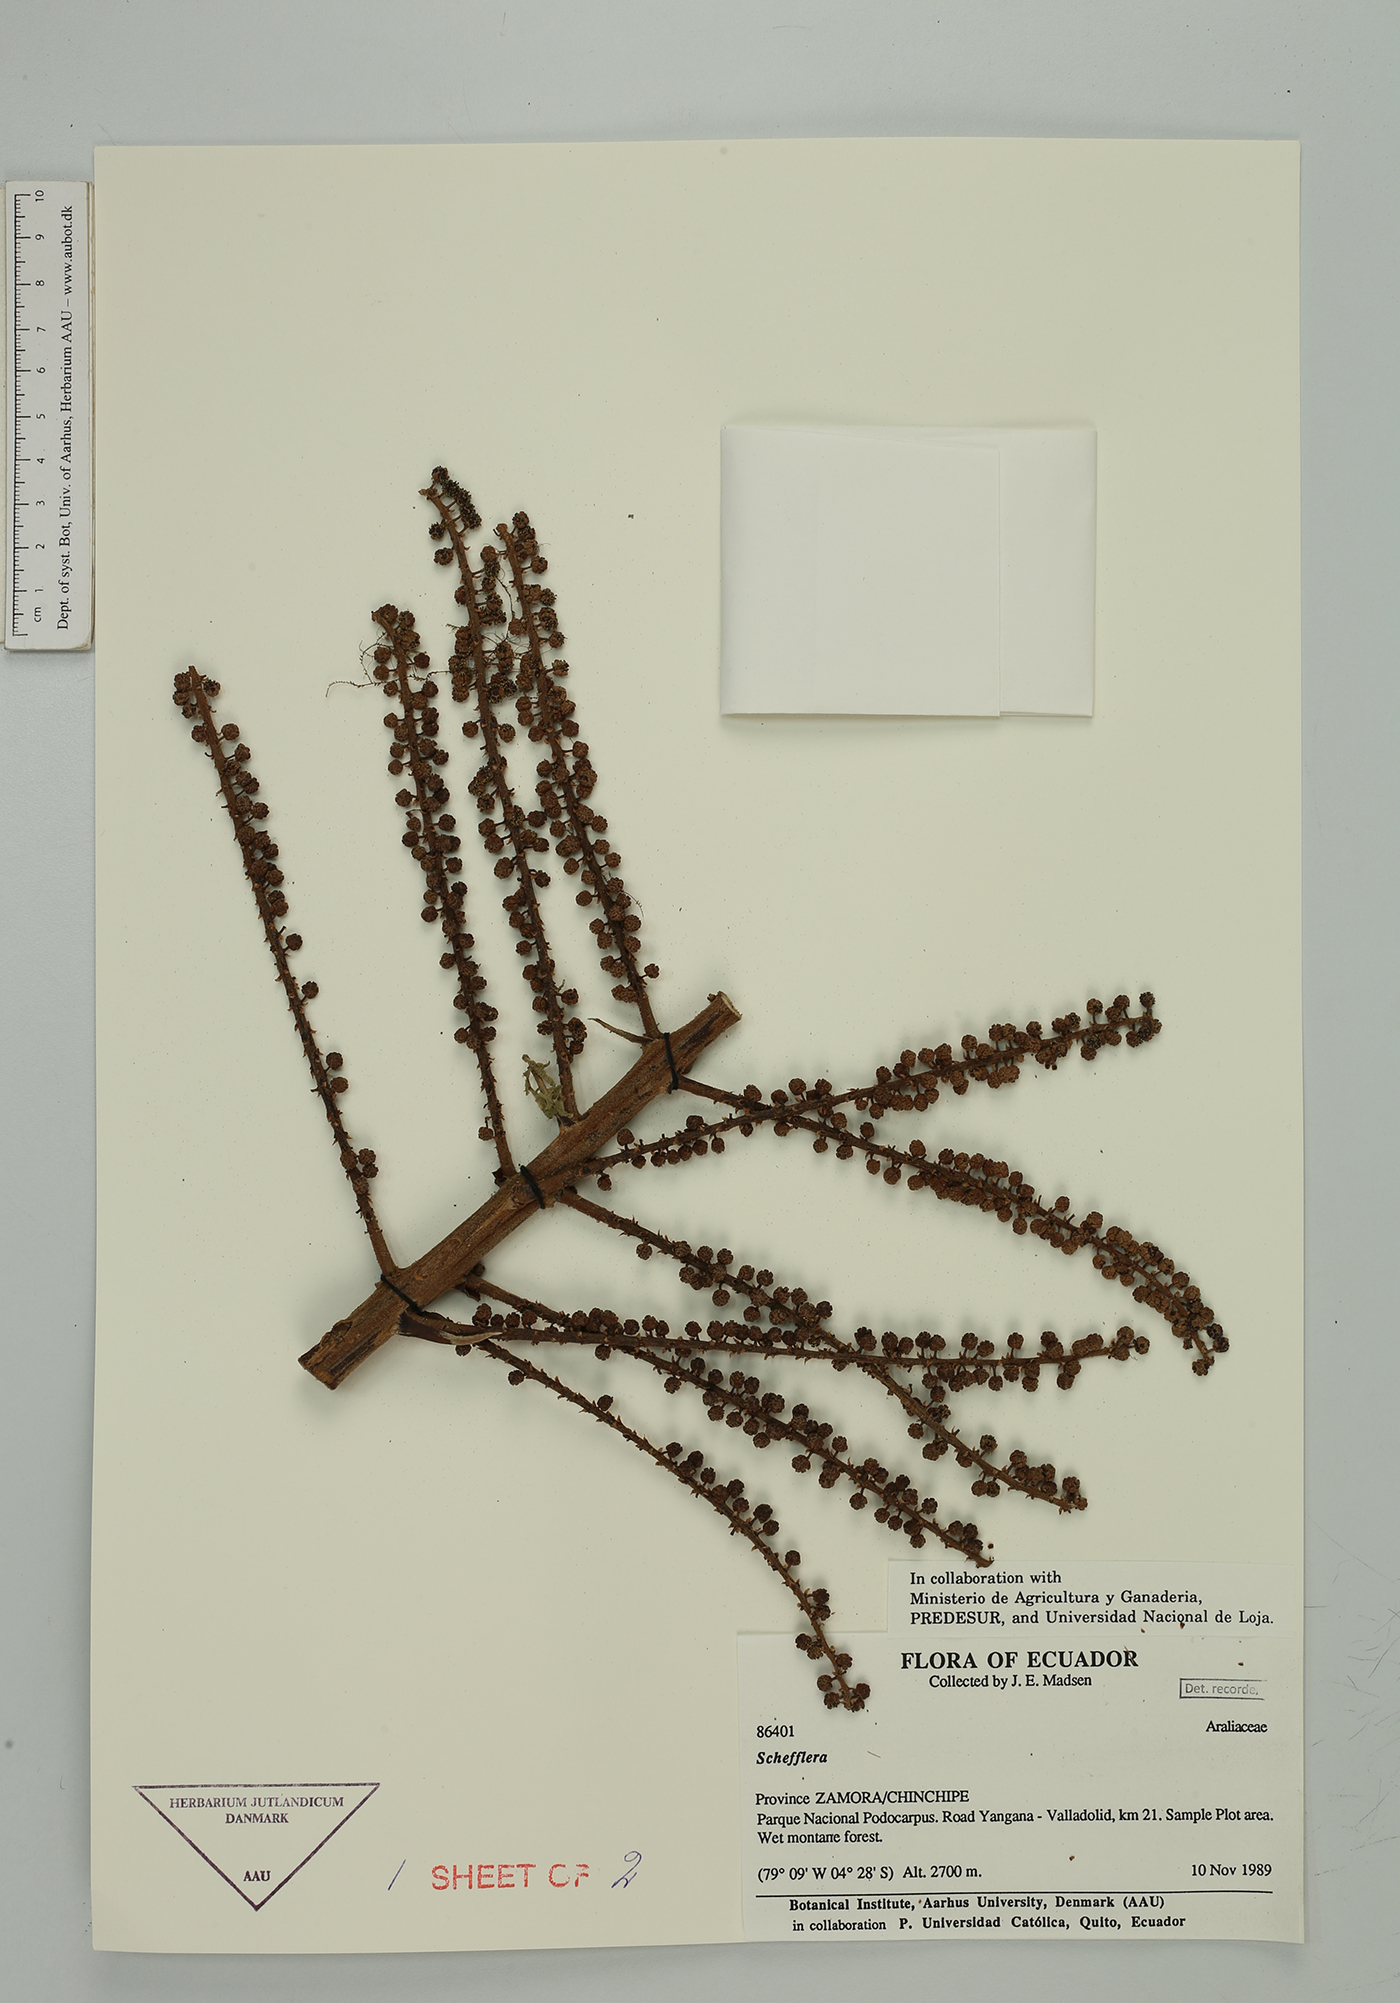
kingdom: Plantae
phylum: Tracheophyta
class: Magnoliopsida
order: Apiales
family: Araliaceae
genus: Sciodaphyllum
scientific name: Sciodaphyllum
